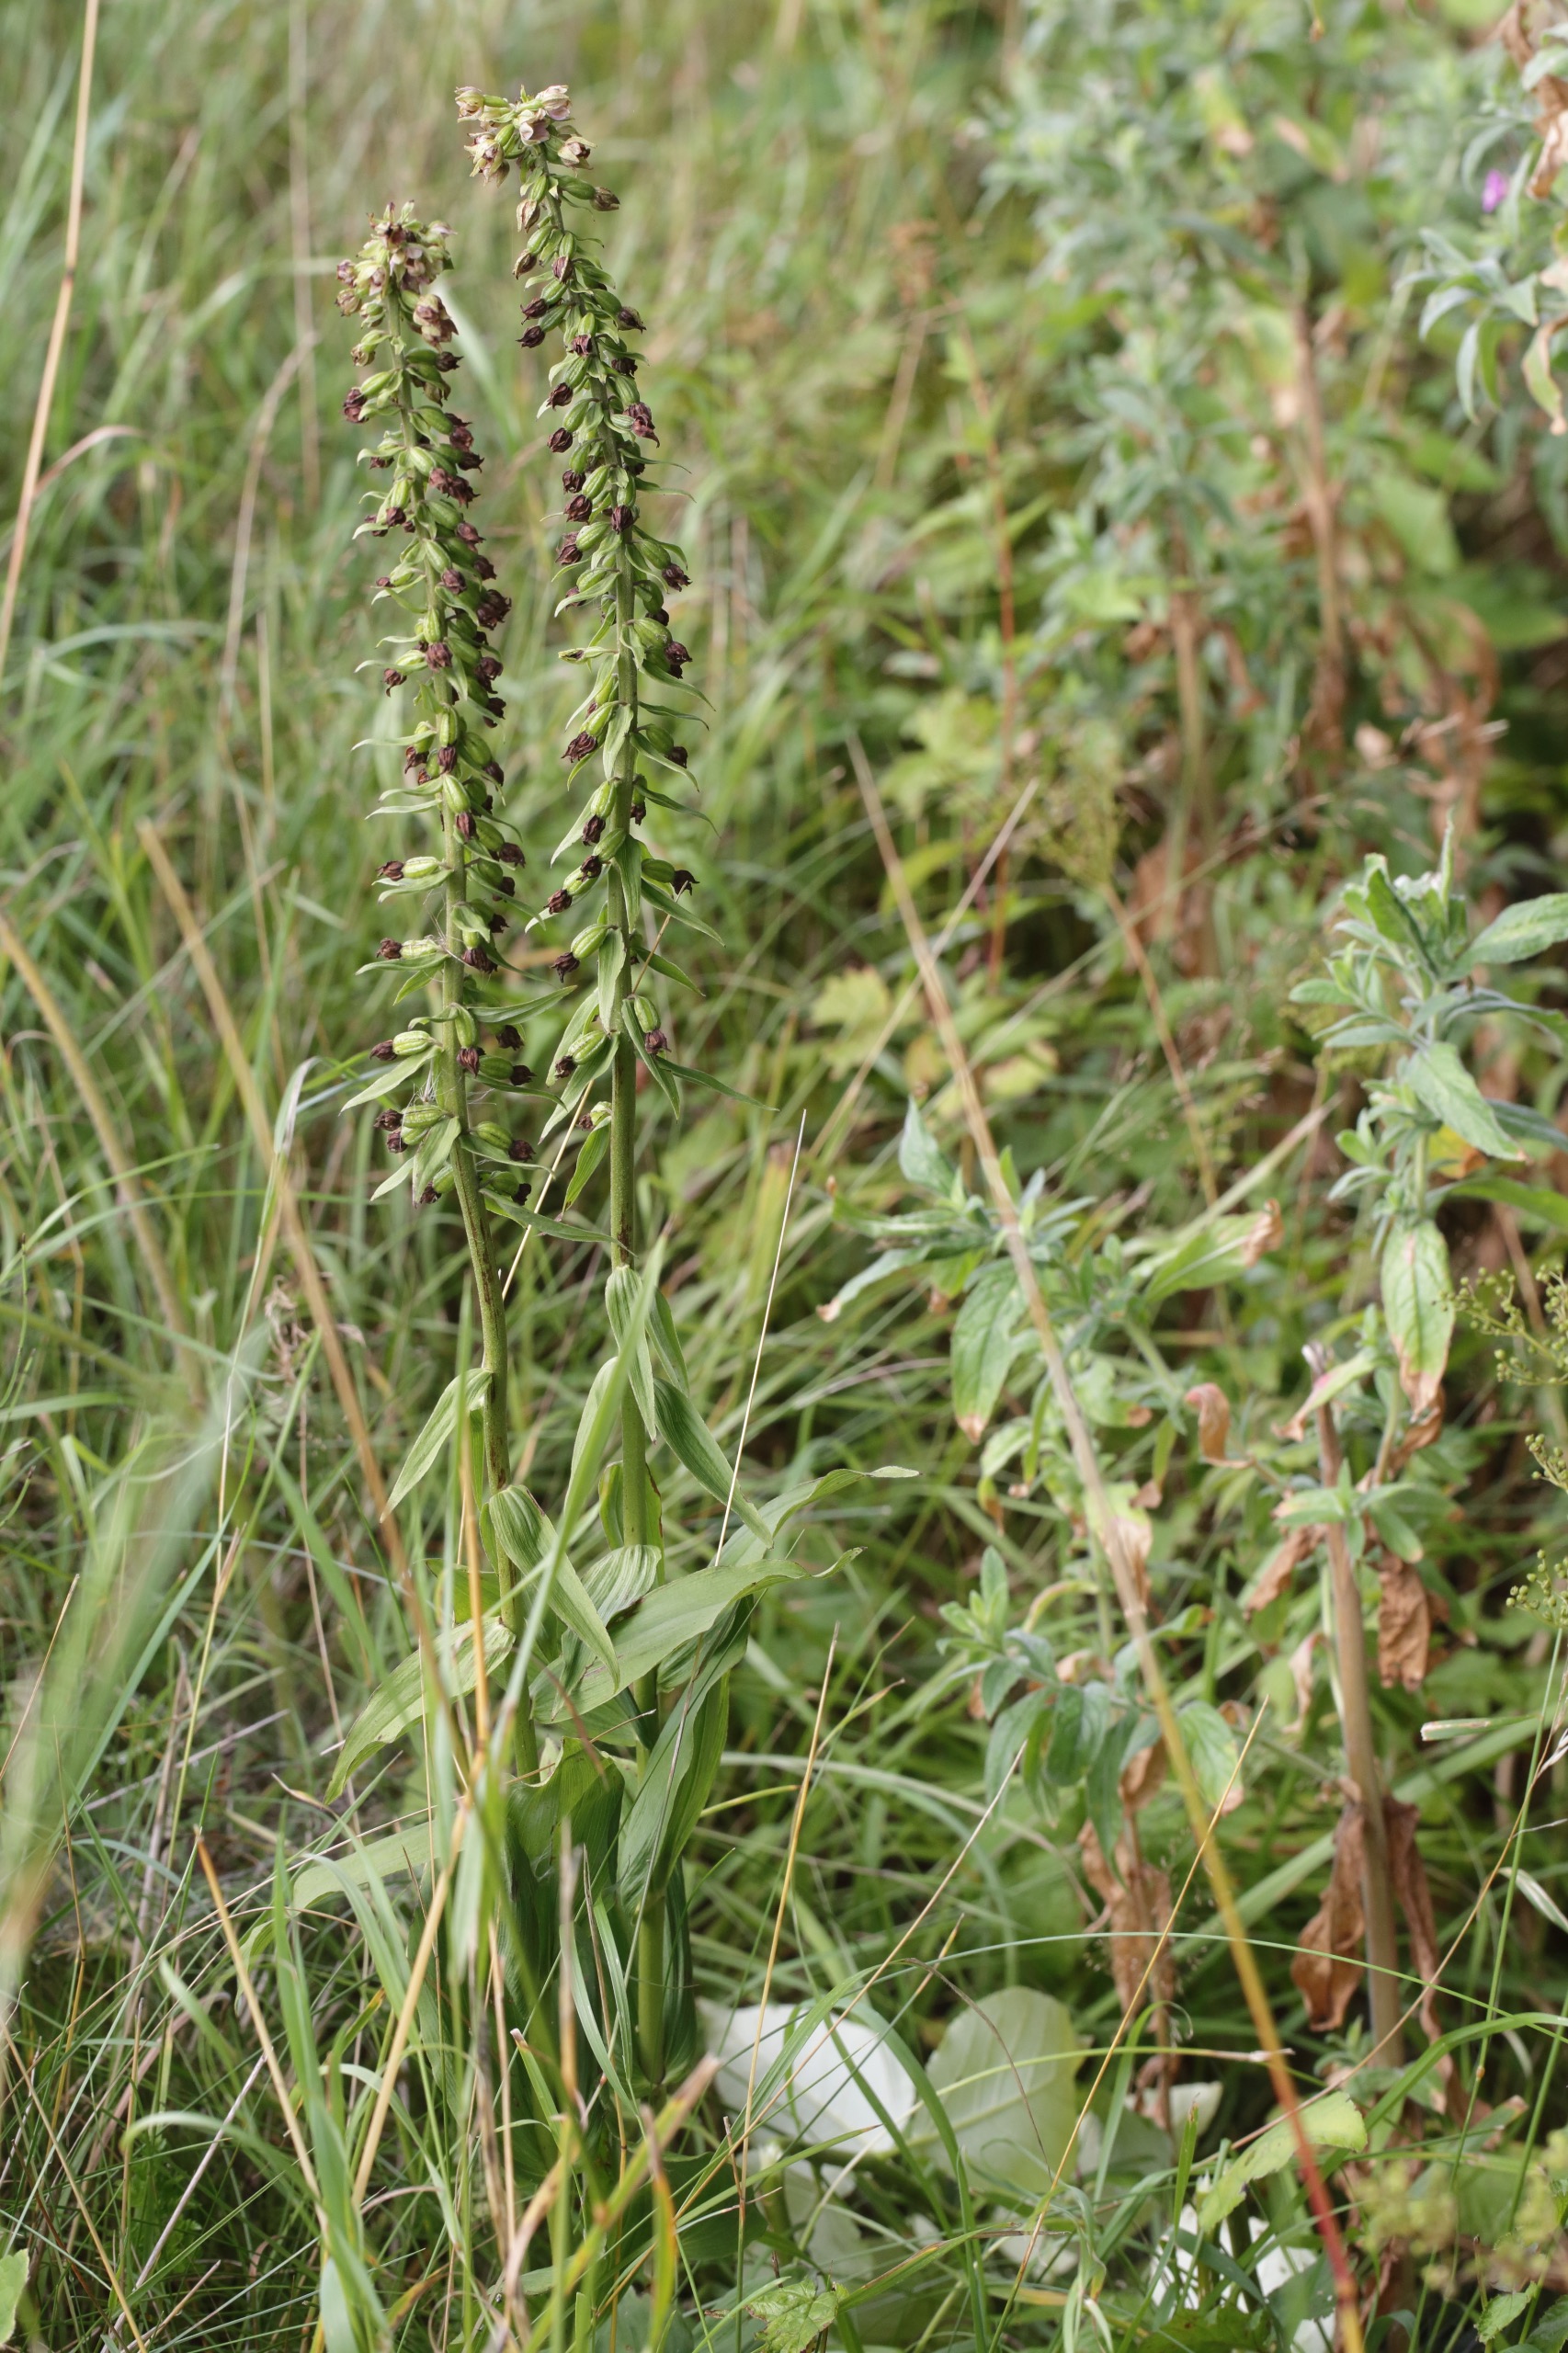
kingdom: Plantae
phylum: Tracheophyta
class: Liliopsida
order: Asparagales
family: Orchidaceae
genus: Epipactis
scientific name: Epipactis helleborine
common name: Skov-hullæbe
